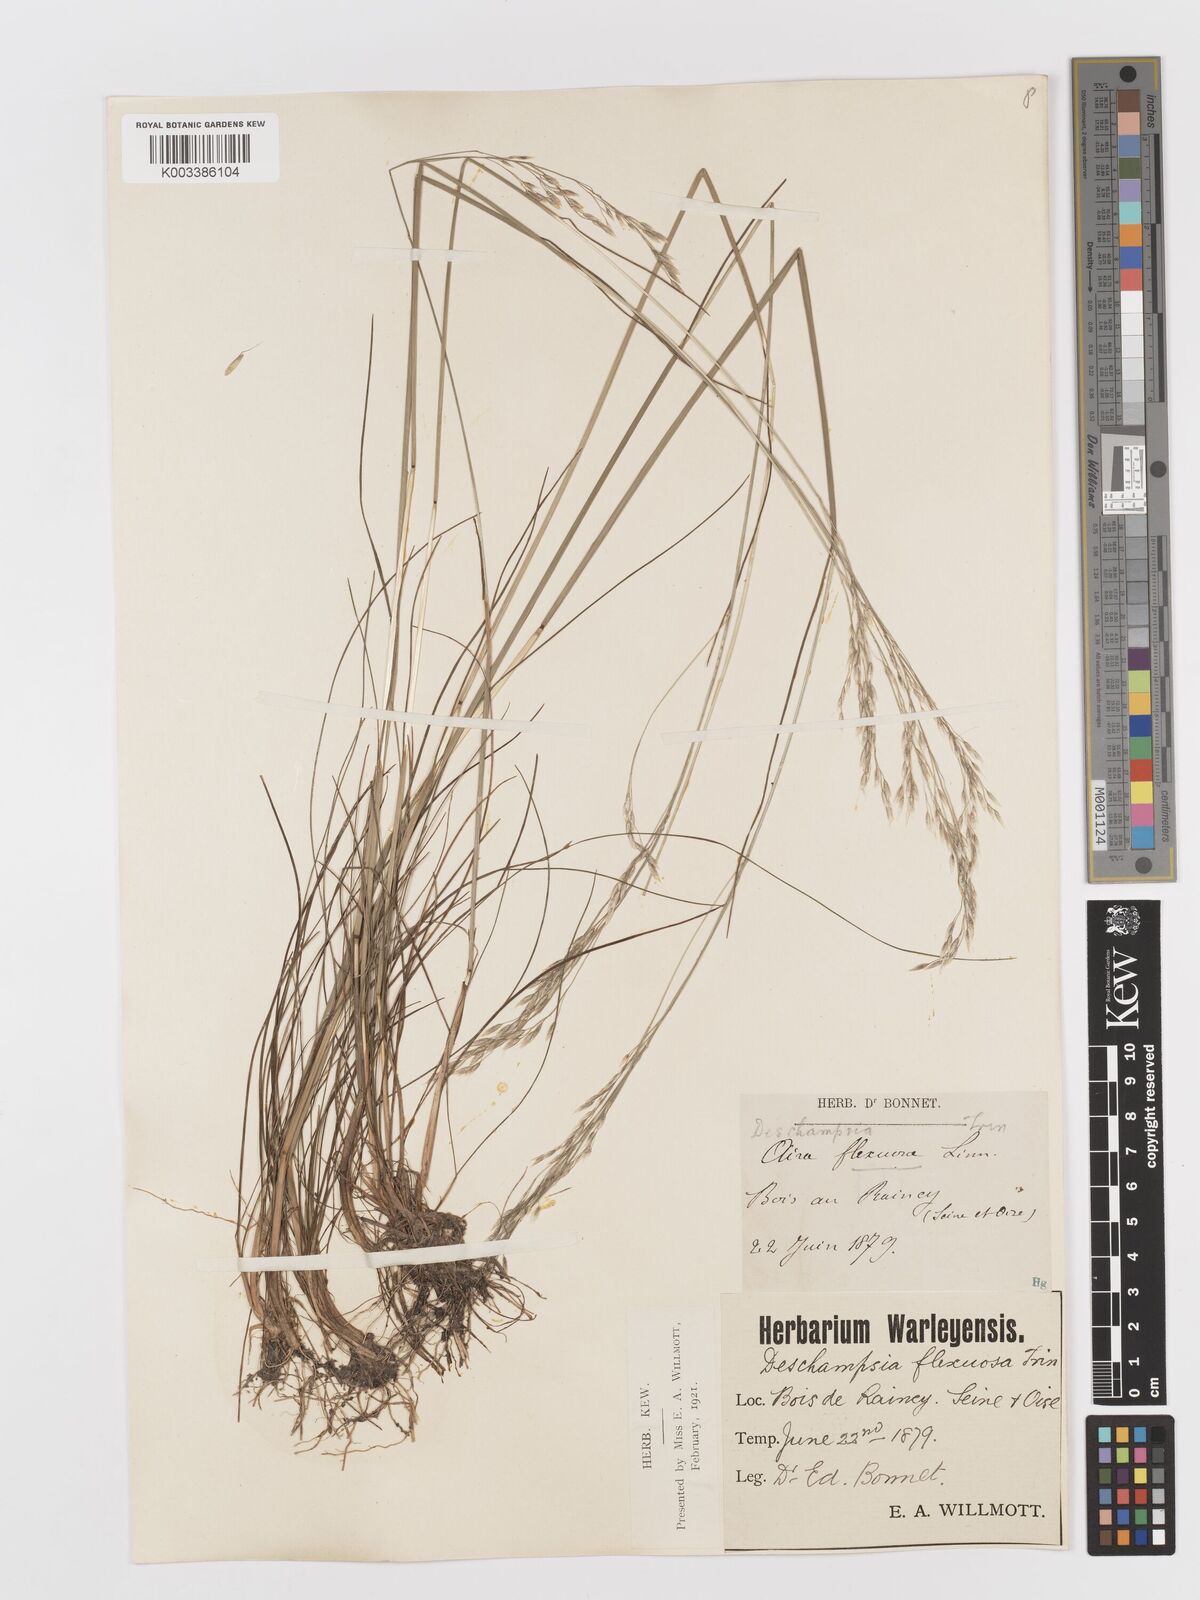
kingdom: Plantae
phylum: Tracheophyta
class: Liliopsida
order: Poales
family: Poaceae
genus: Avenella
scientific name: Avenella flexuosa
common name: Wavy hairgrass
